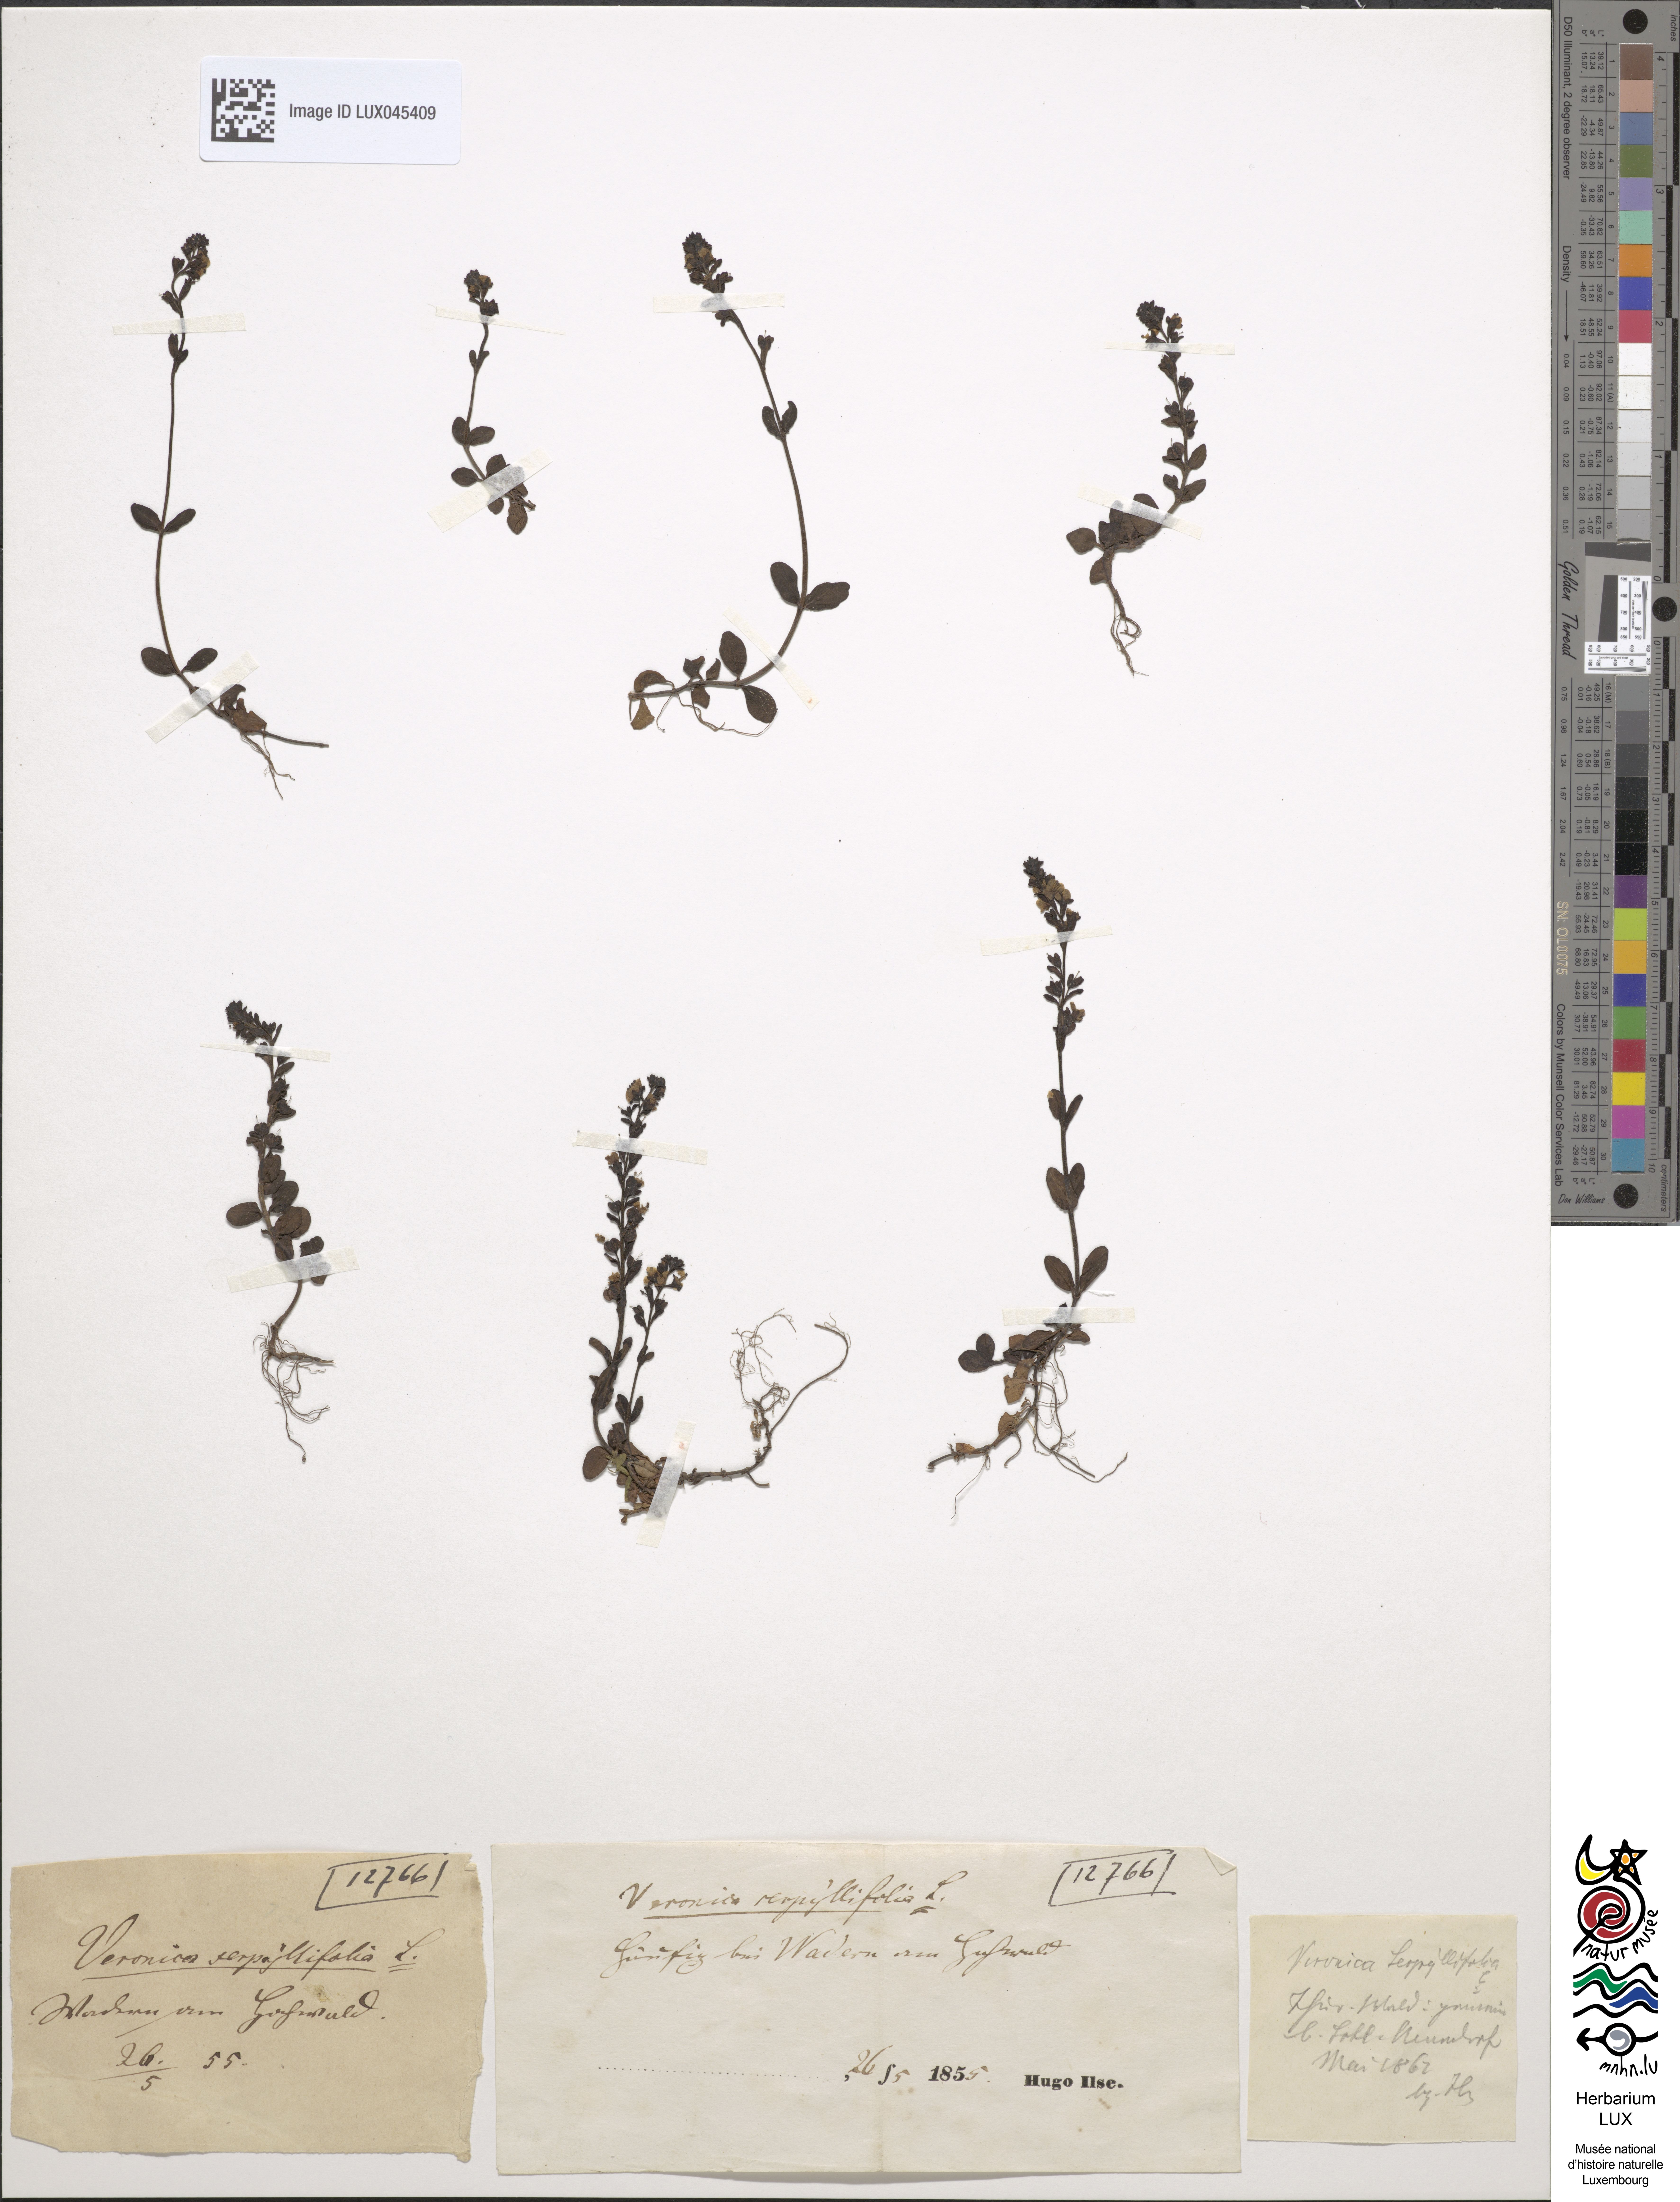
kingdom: Plantae
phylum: Tracheophyta
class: Magnoliopsida
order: Lamiales
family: Plantaginaceae
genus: Veronica
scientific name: Veronica serpyllifolia
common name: Thyme-leaved speedwell
